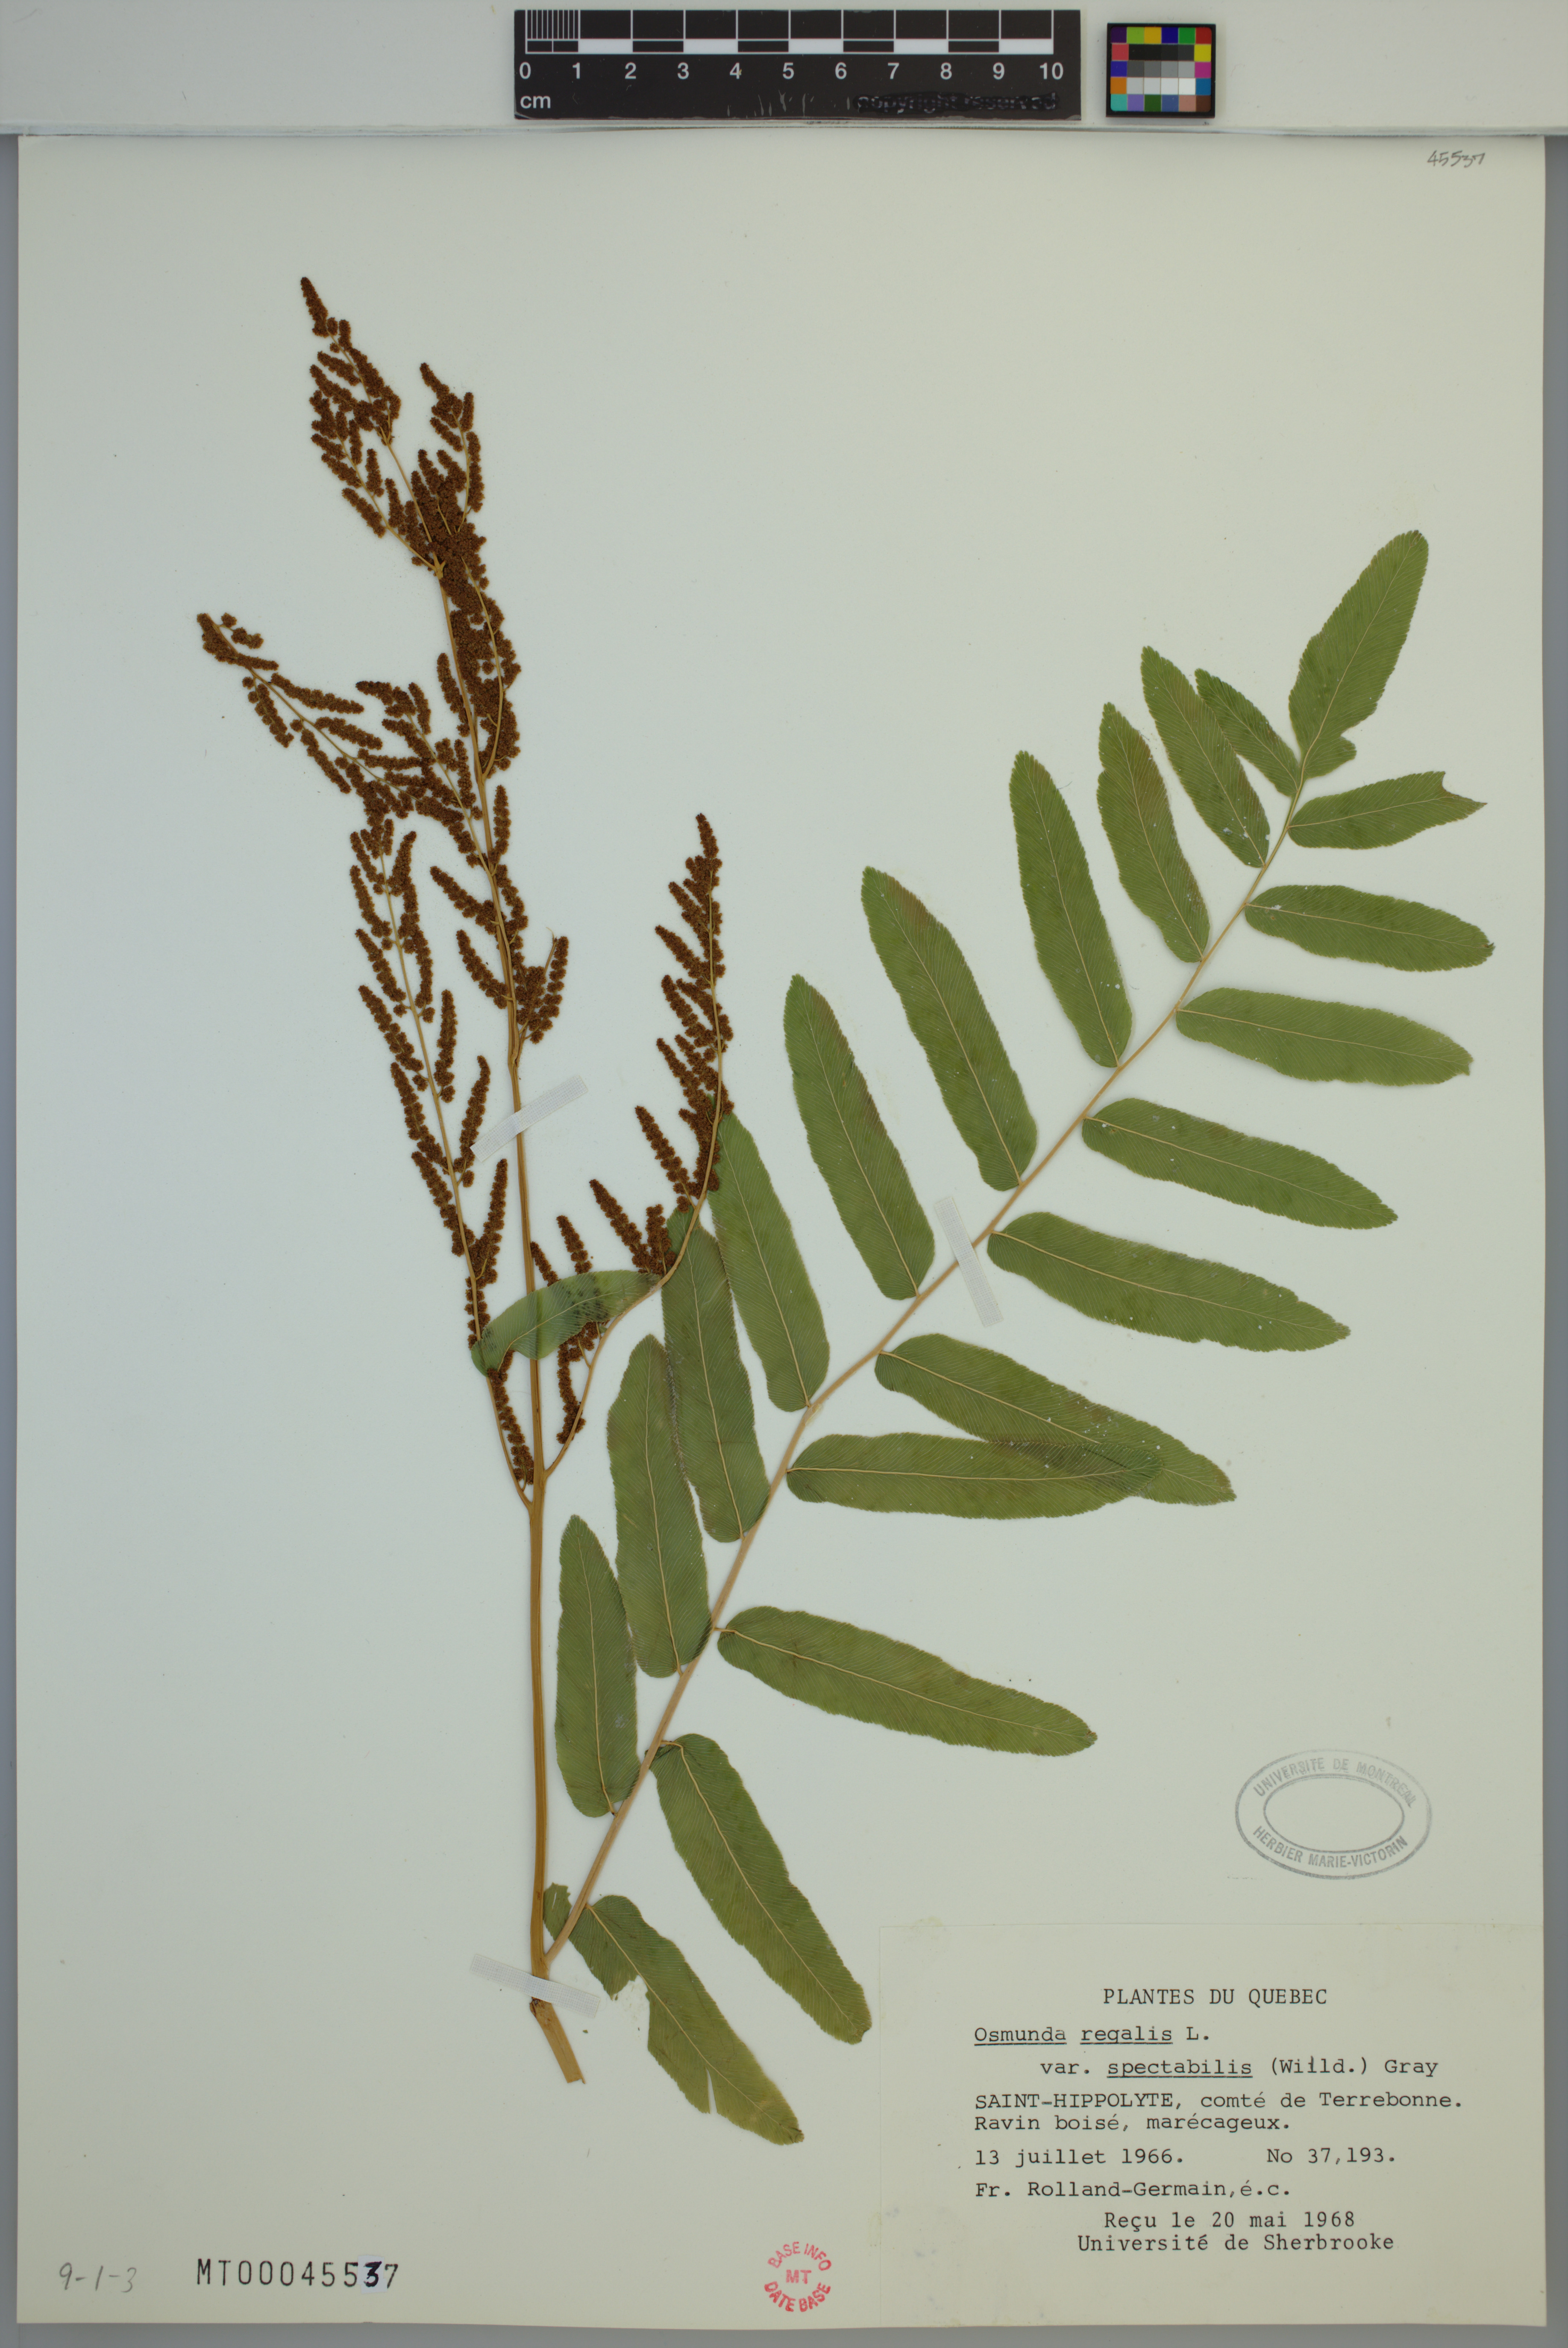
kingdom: Plantae
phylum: Tracheophyta
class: Polypodiopsida
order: Osmundales
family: Osmundaceae
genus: Osmunda
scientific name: Osmunda spectabilis
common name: American royal fern
